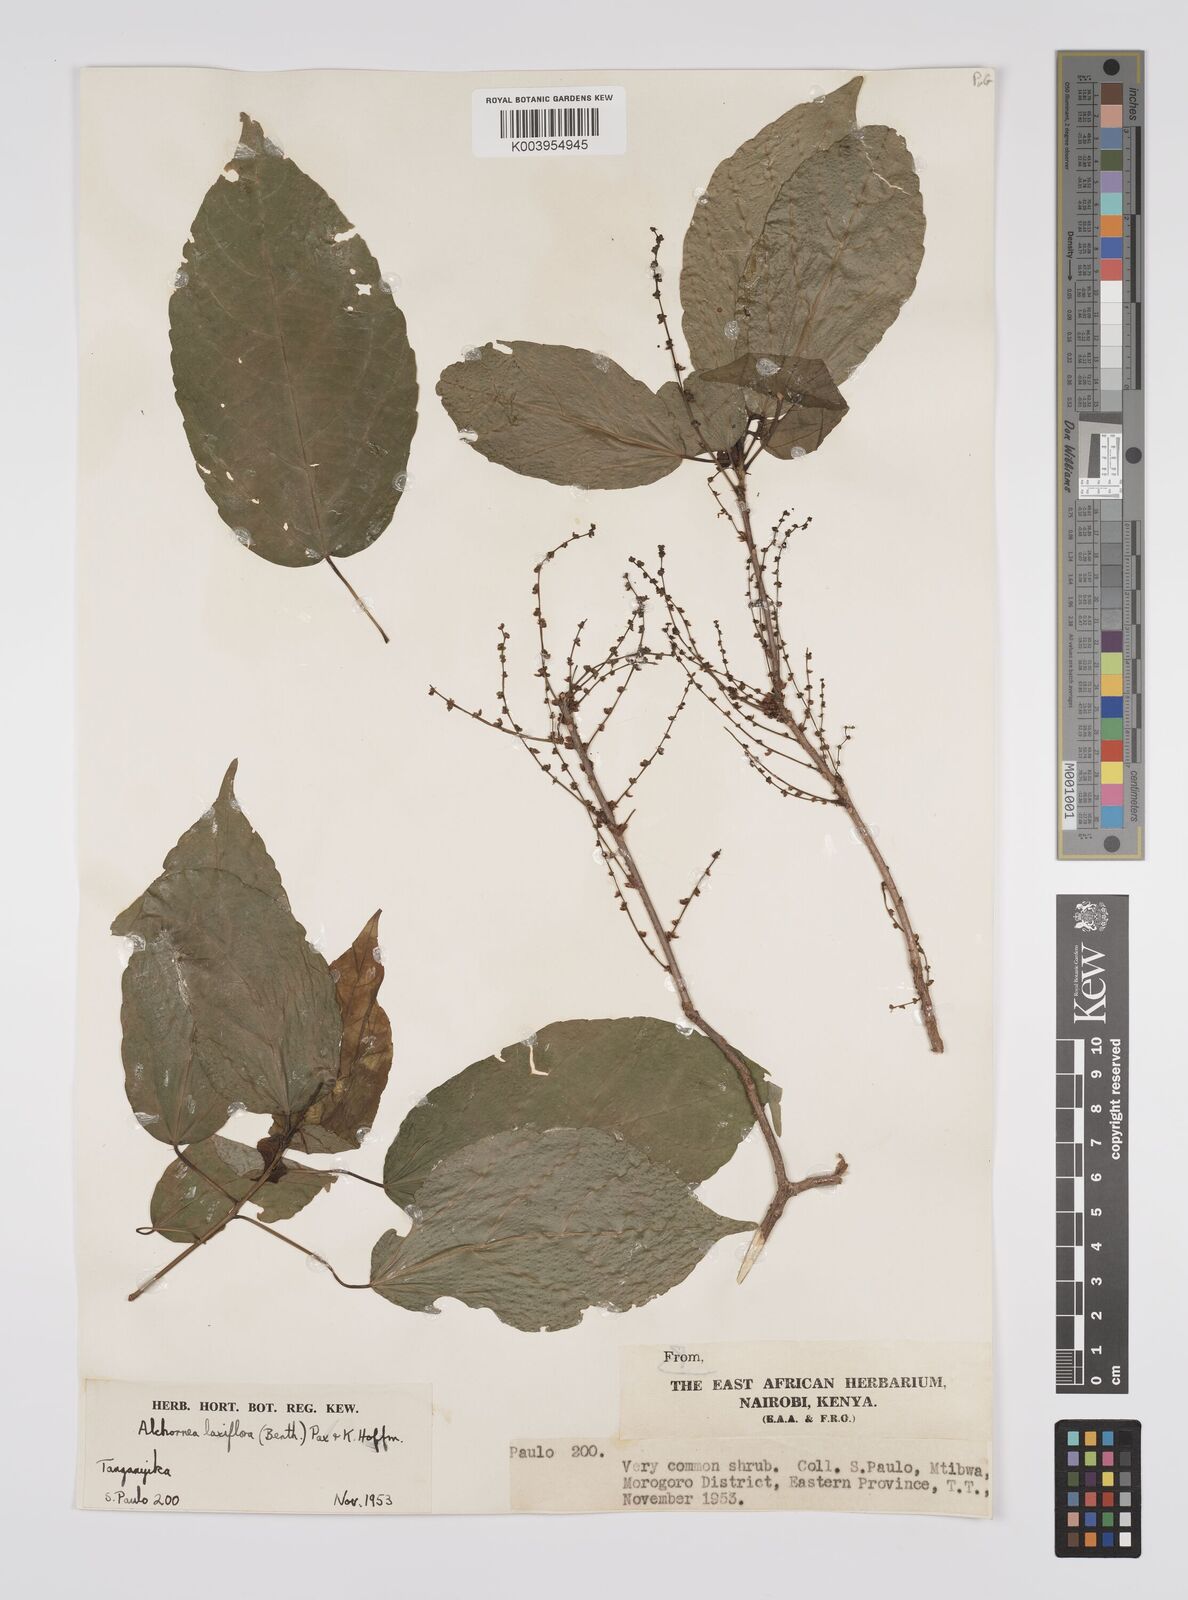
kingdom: Plantae
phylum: Tracheophyta
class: Magnoliopsida
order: Malpighiales
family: Euphorbiaceae
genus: Alchornea
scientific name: Alchornea laxiflora
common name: Lowveld bead-string
